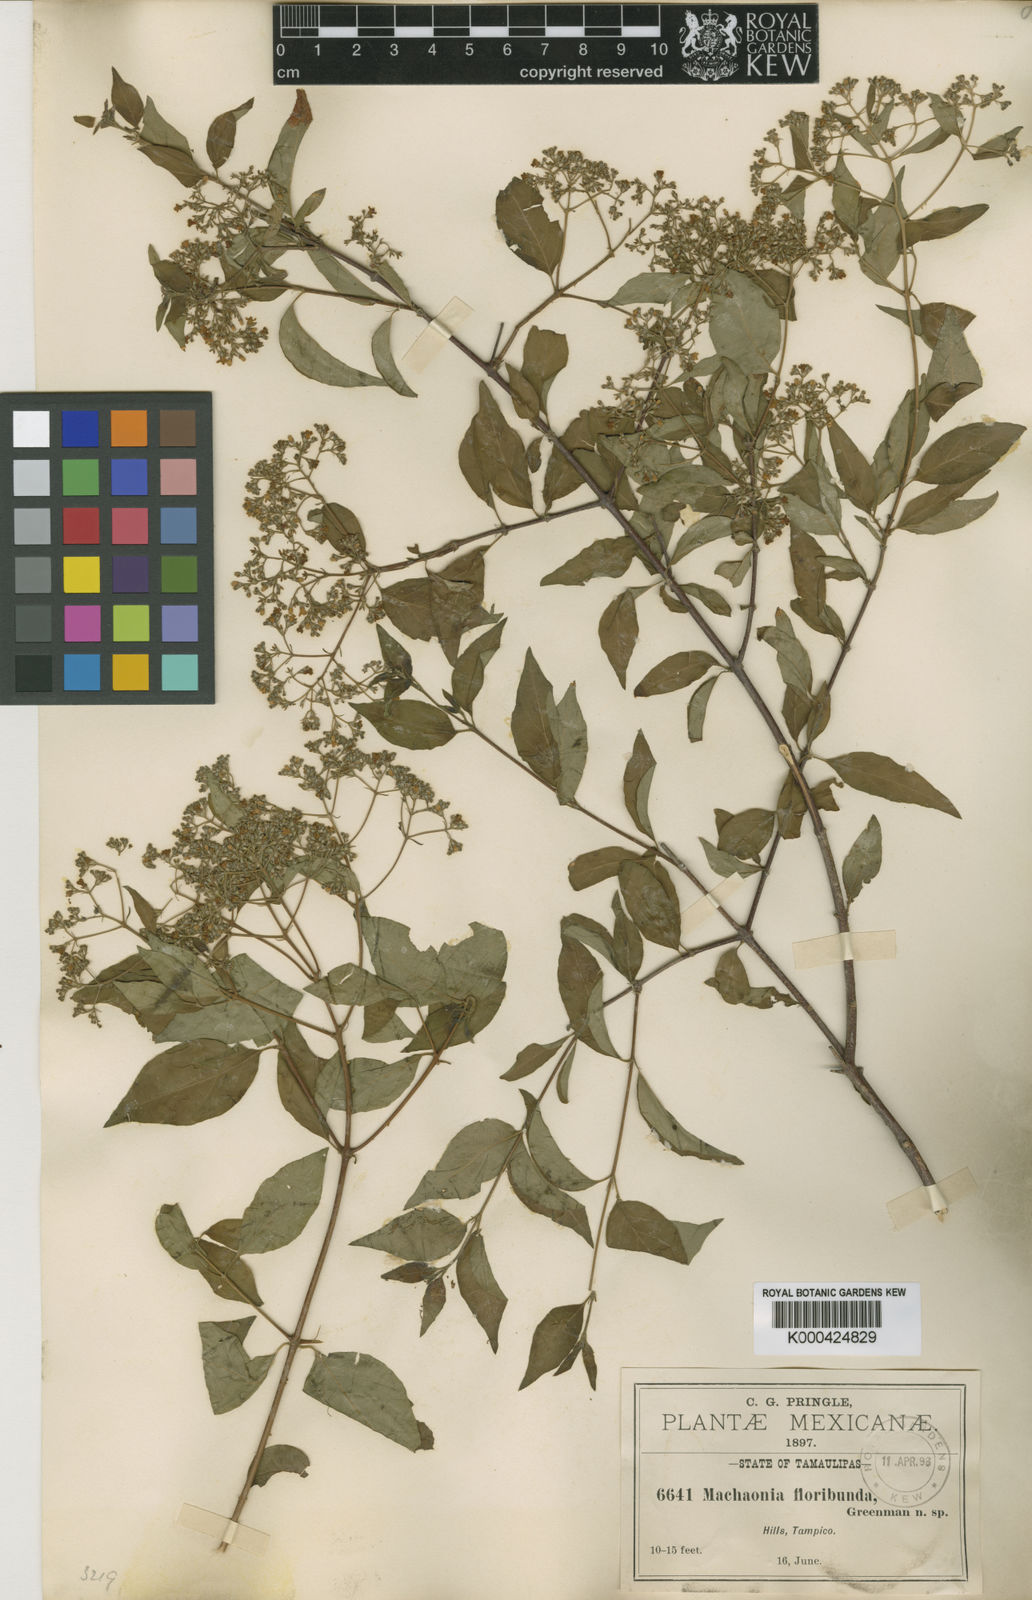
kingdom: Plantae
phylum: Tracheophyta
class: Magnoliopsida
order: Gentianales
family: Rubiaceae
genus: Machaonia
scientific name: Machaonia acuminata
